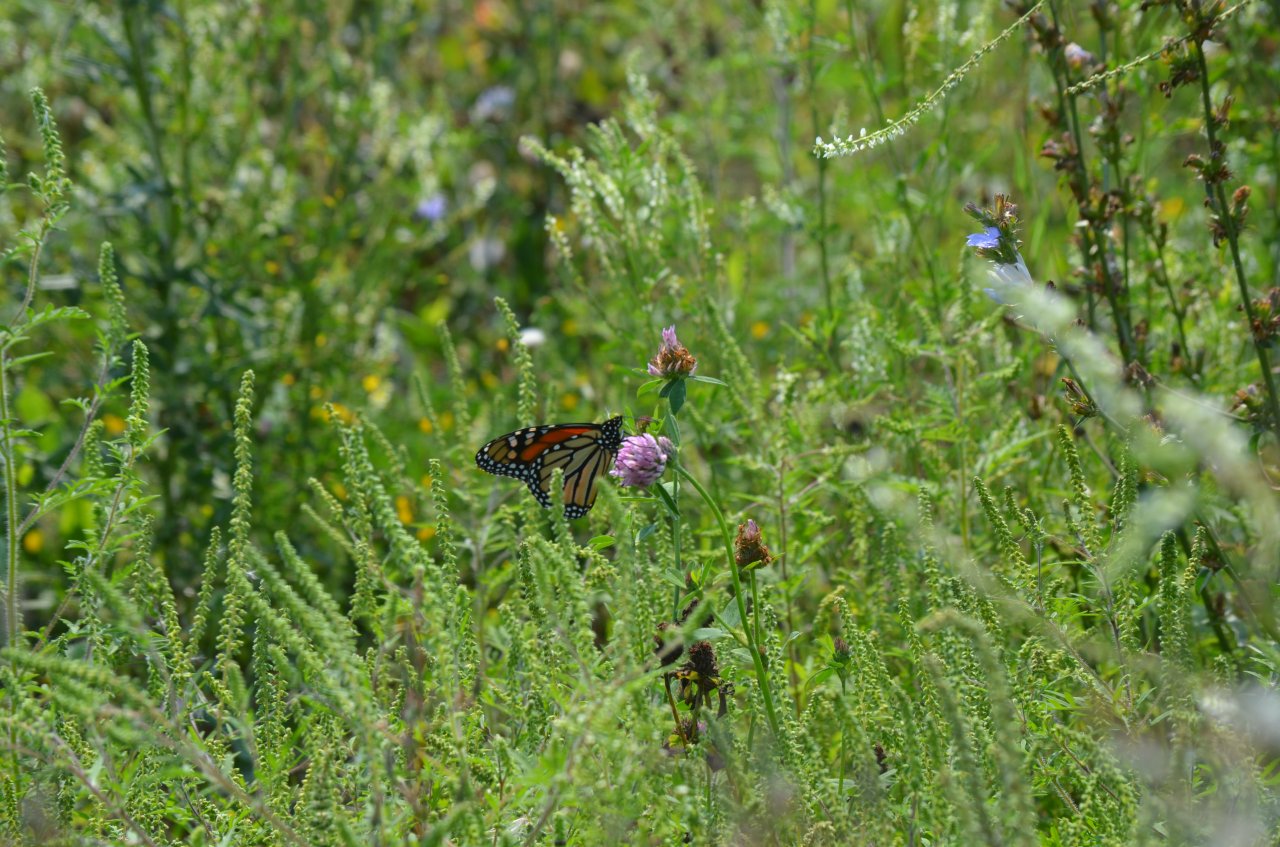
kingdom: Animalia
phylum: Arthropoda
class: Insecta
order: Lepidoptera
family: Nymphalidae
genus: Danaus
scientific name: Danaus plexippus
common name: Monarch
